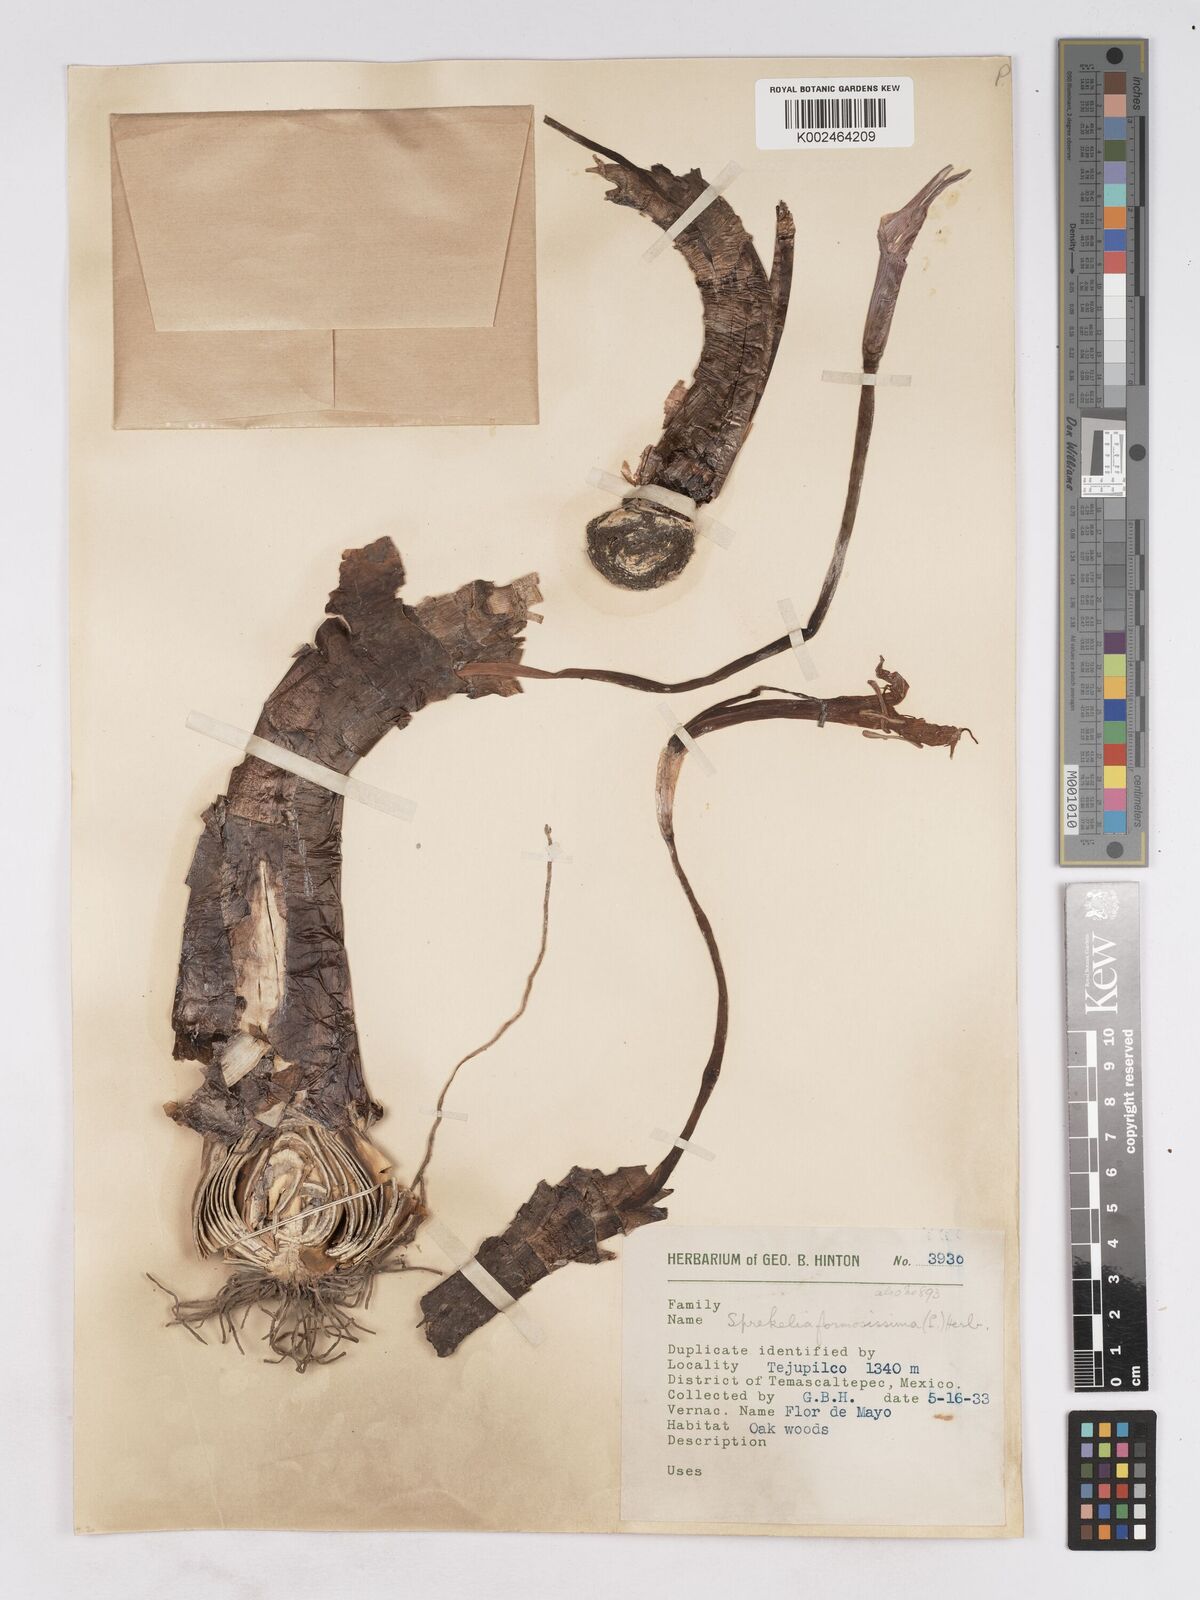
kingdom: Plantae
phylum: Tracheophyta
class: Liliopsida
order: Asparagales
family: Amaryllidaceae
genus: Sprekelia
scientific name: Sprekelia formosissima
